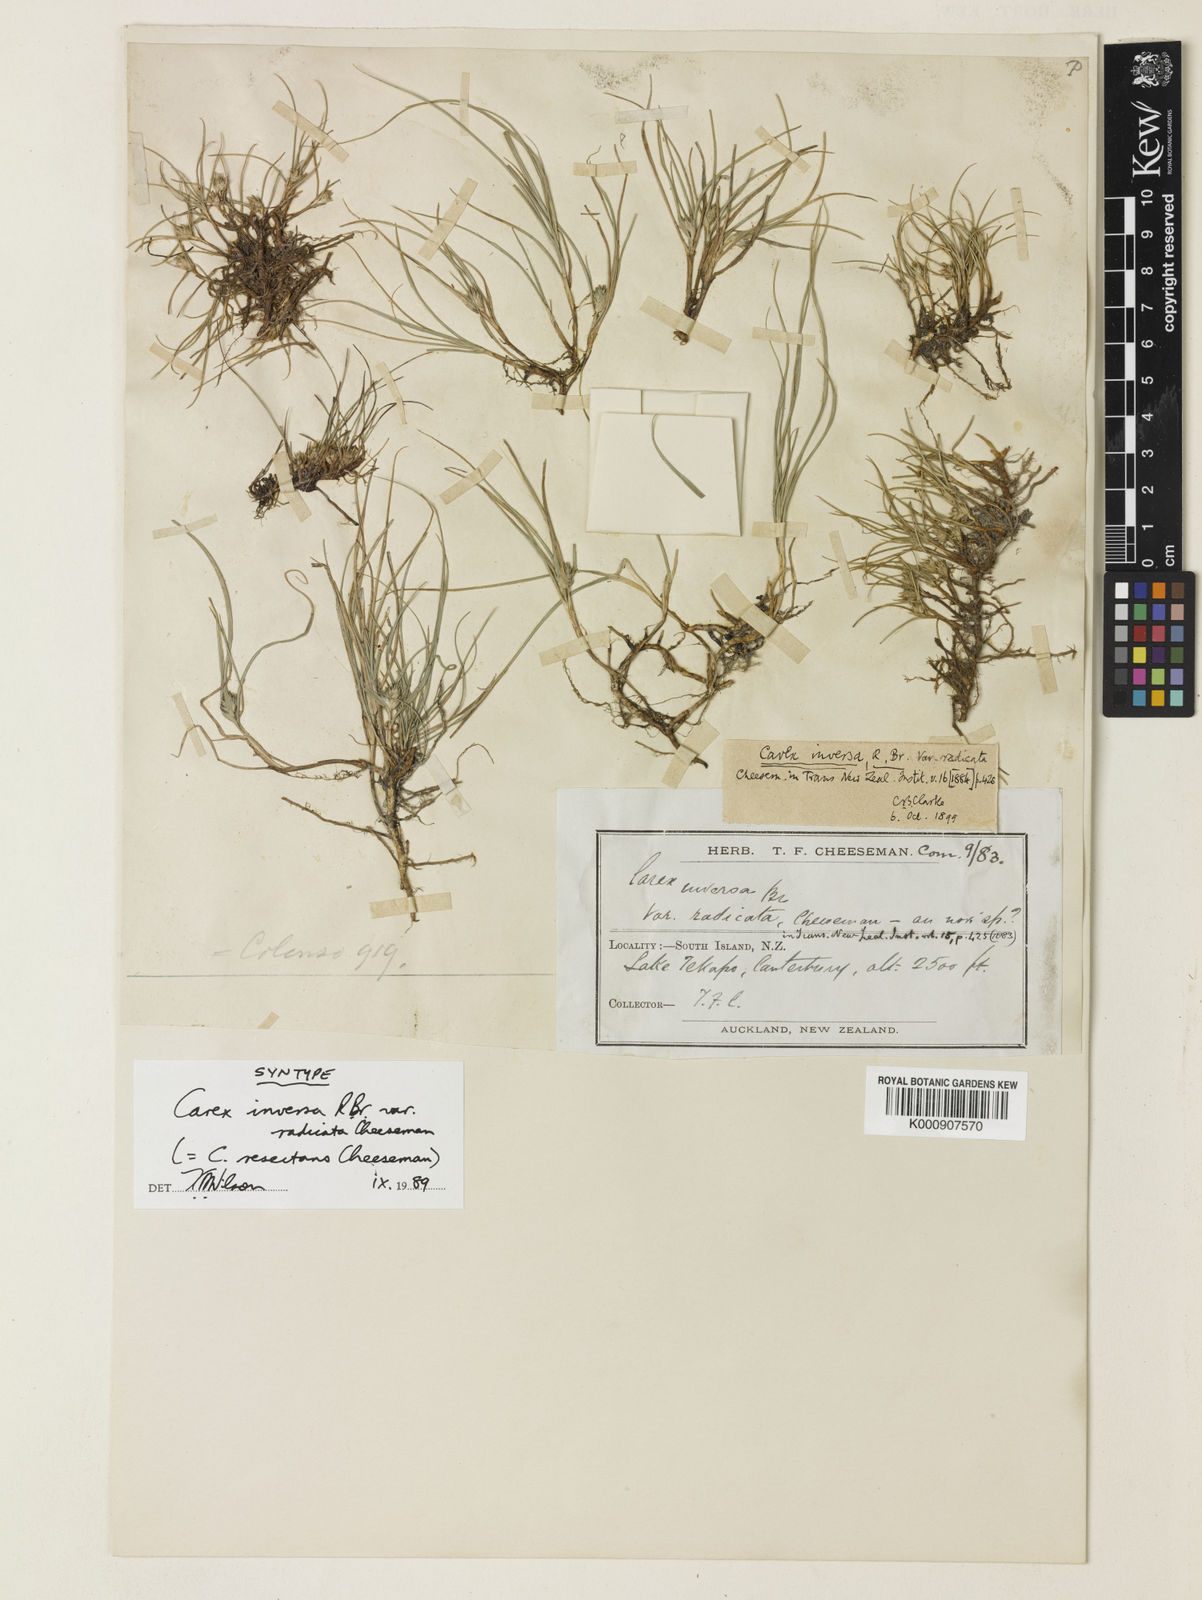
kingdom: Plantae
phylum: Tracheophyta
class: Liliopsida
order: Poales
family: Cyperaceae
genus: Carex
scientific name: Carex resectans
